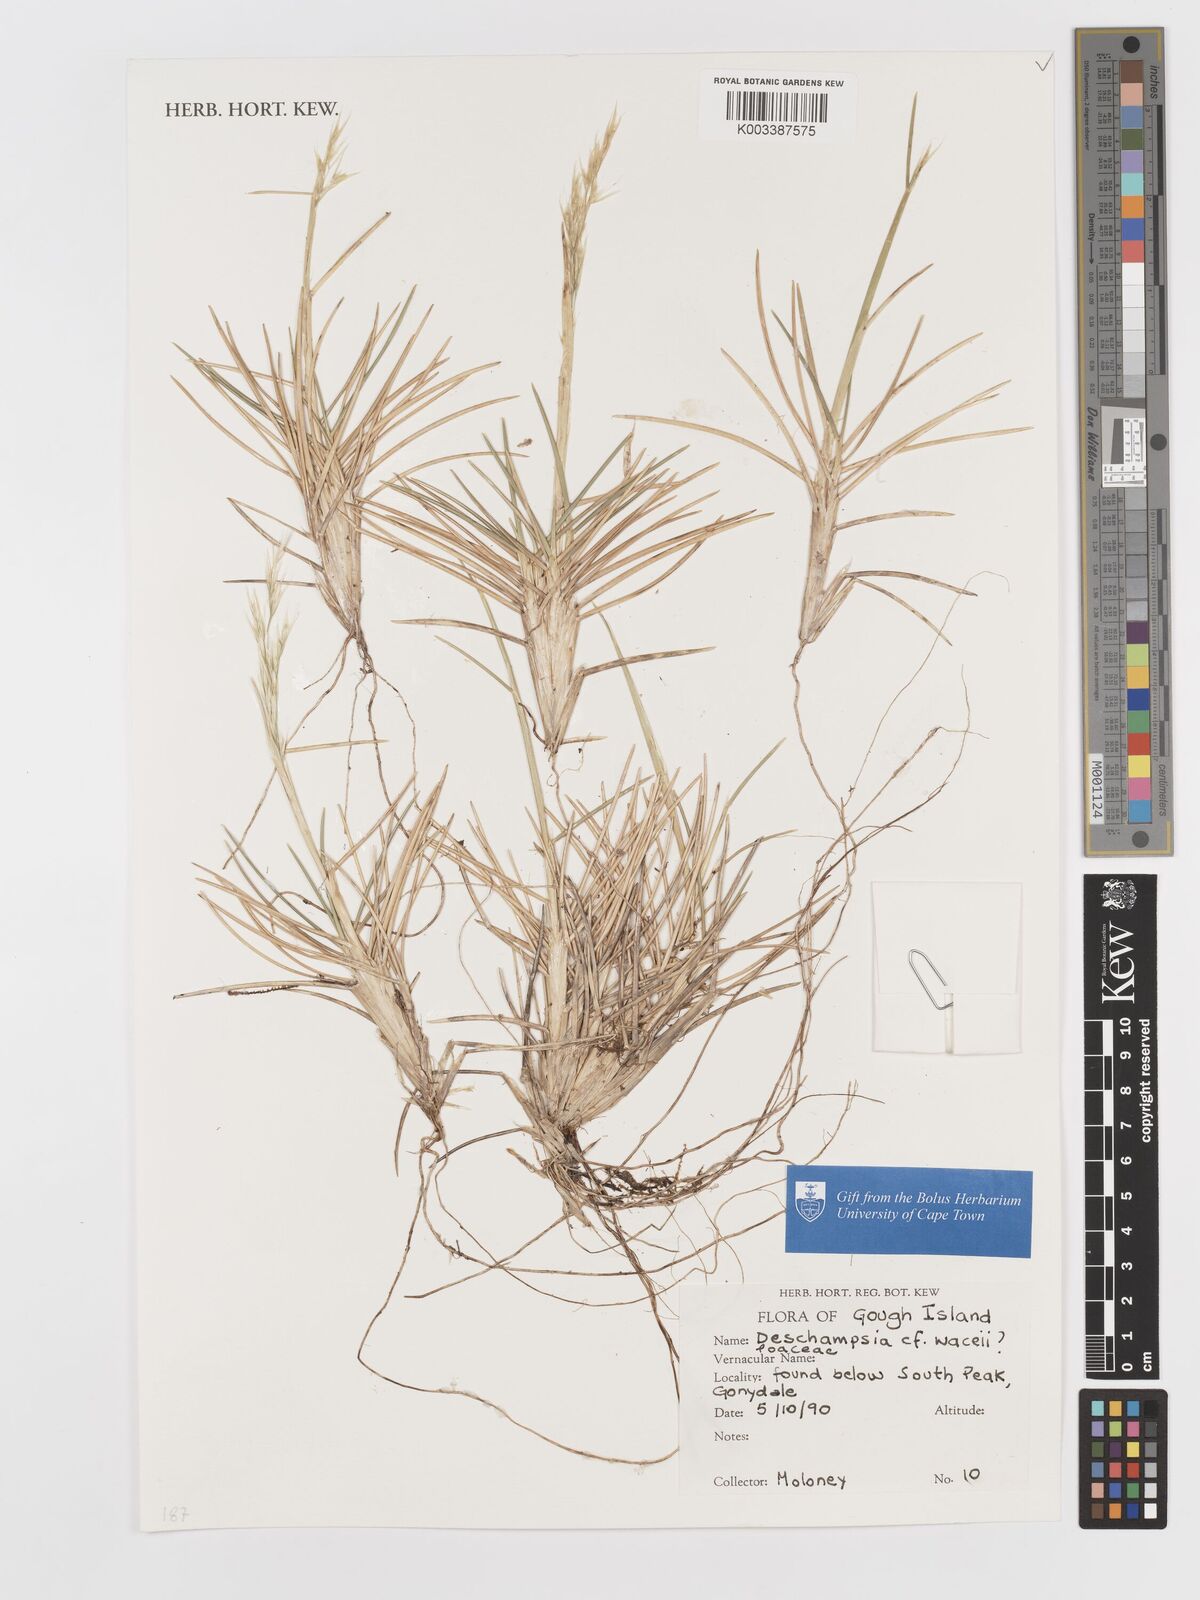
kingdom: Plantae
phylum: Tracheophyta
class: Liliopsida
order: Poales
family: Poaceae
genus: Deschampsia
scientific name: Deschampsia wacei
